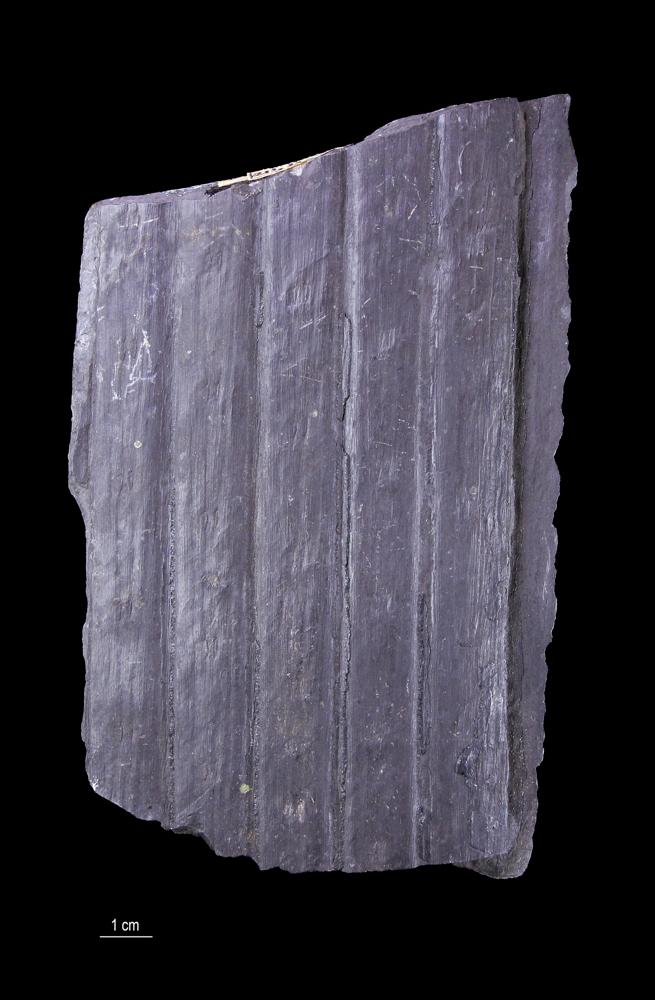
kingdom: Plantae
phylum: Tracheophyta
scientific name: Tracheophyta
